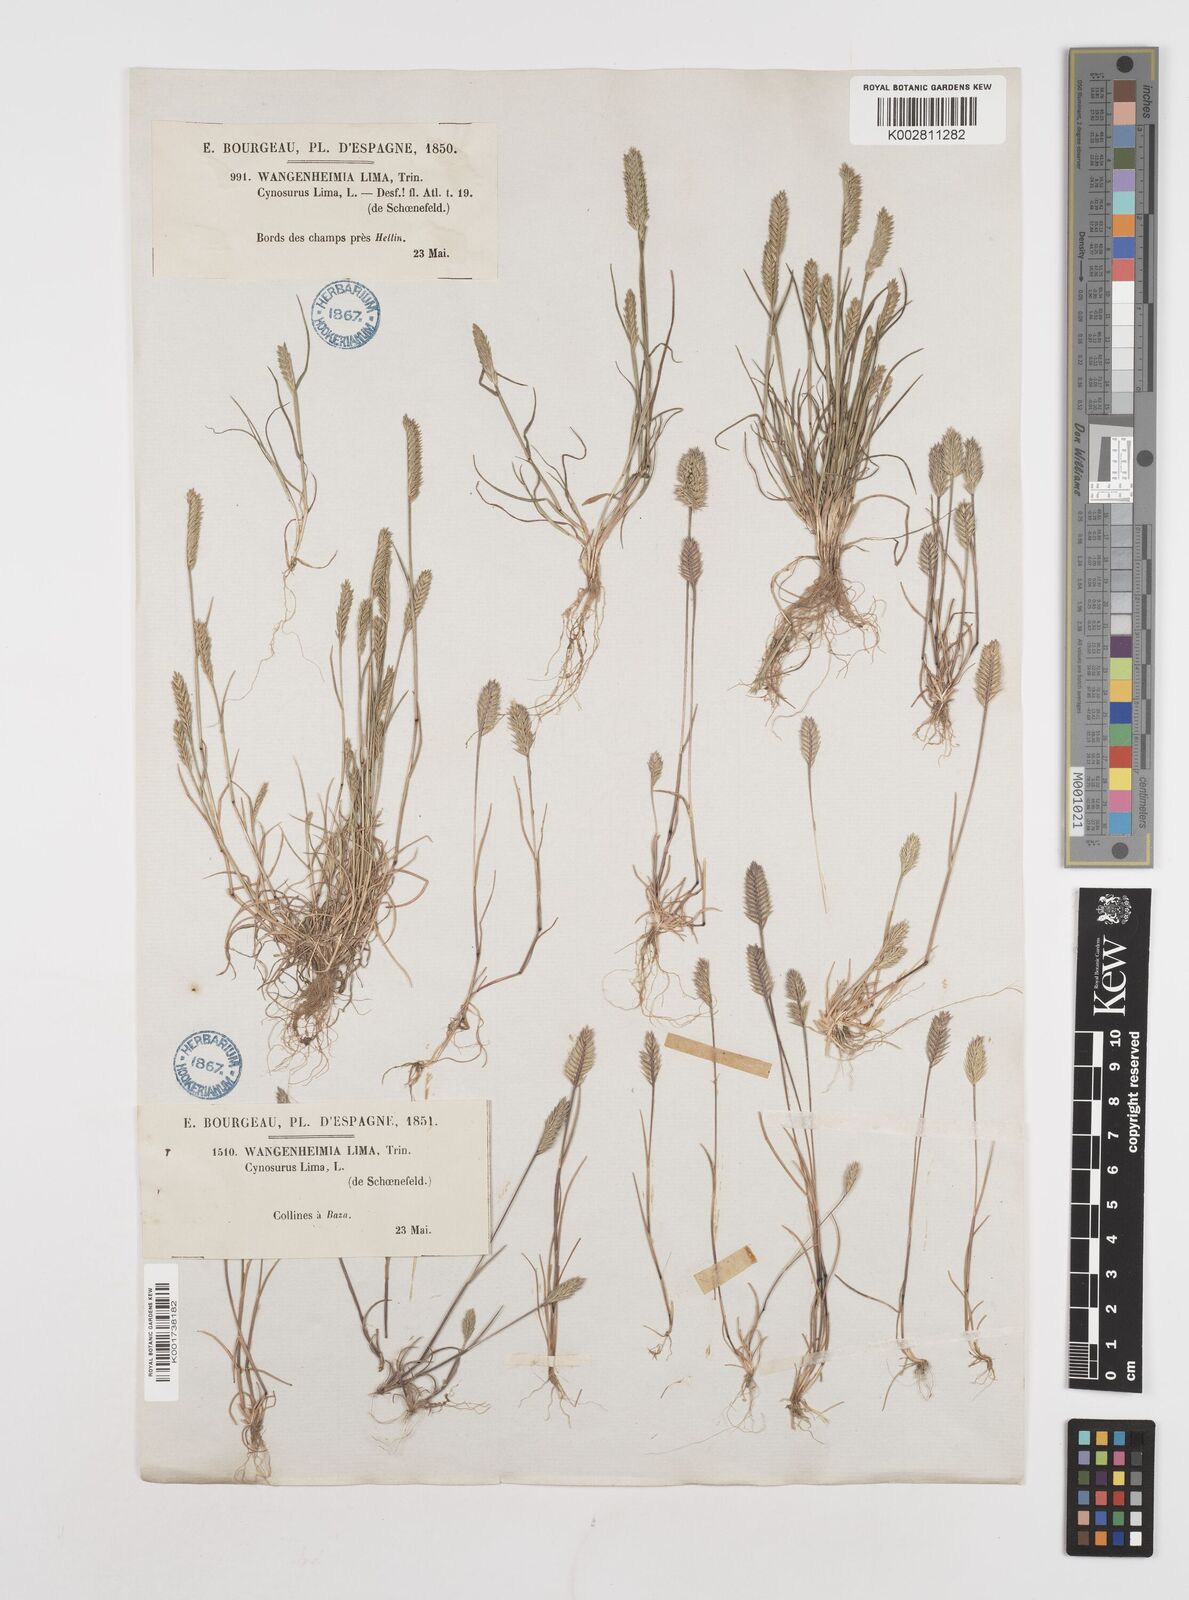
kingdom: Plantae
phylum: Tracheophyta
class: Liliopsida
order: Poales
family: Poaceae
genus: Wangenheimia
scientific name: Wangenheimia lima
